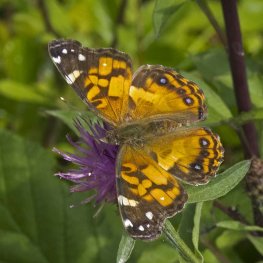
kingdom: Animalia
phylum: Arthropoda
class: Insecta
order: Lepidoptera
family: Nymphalidae
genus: Vanessa
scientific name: Vanessa virginiensis
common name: American Lady
